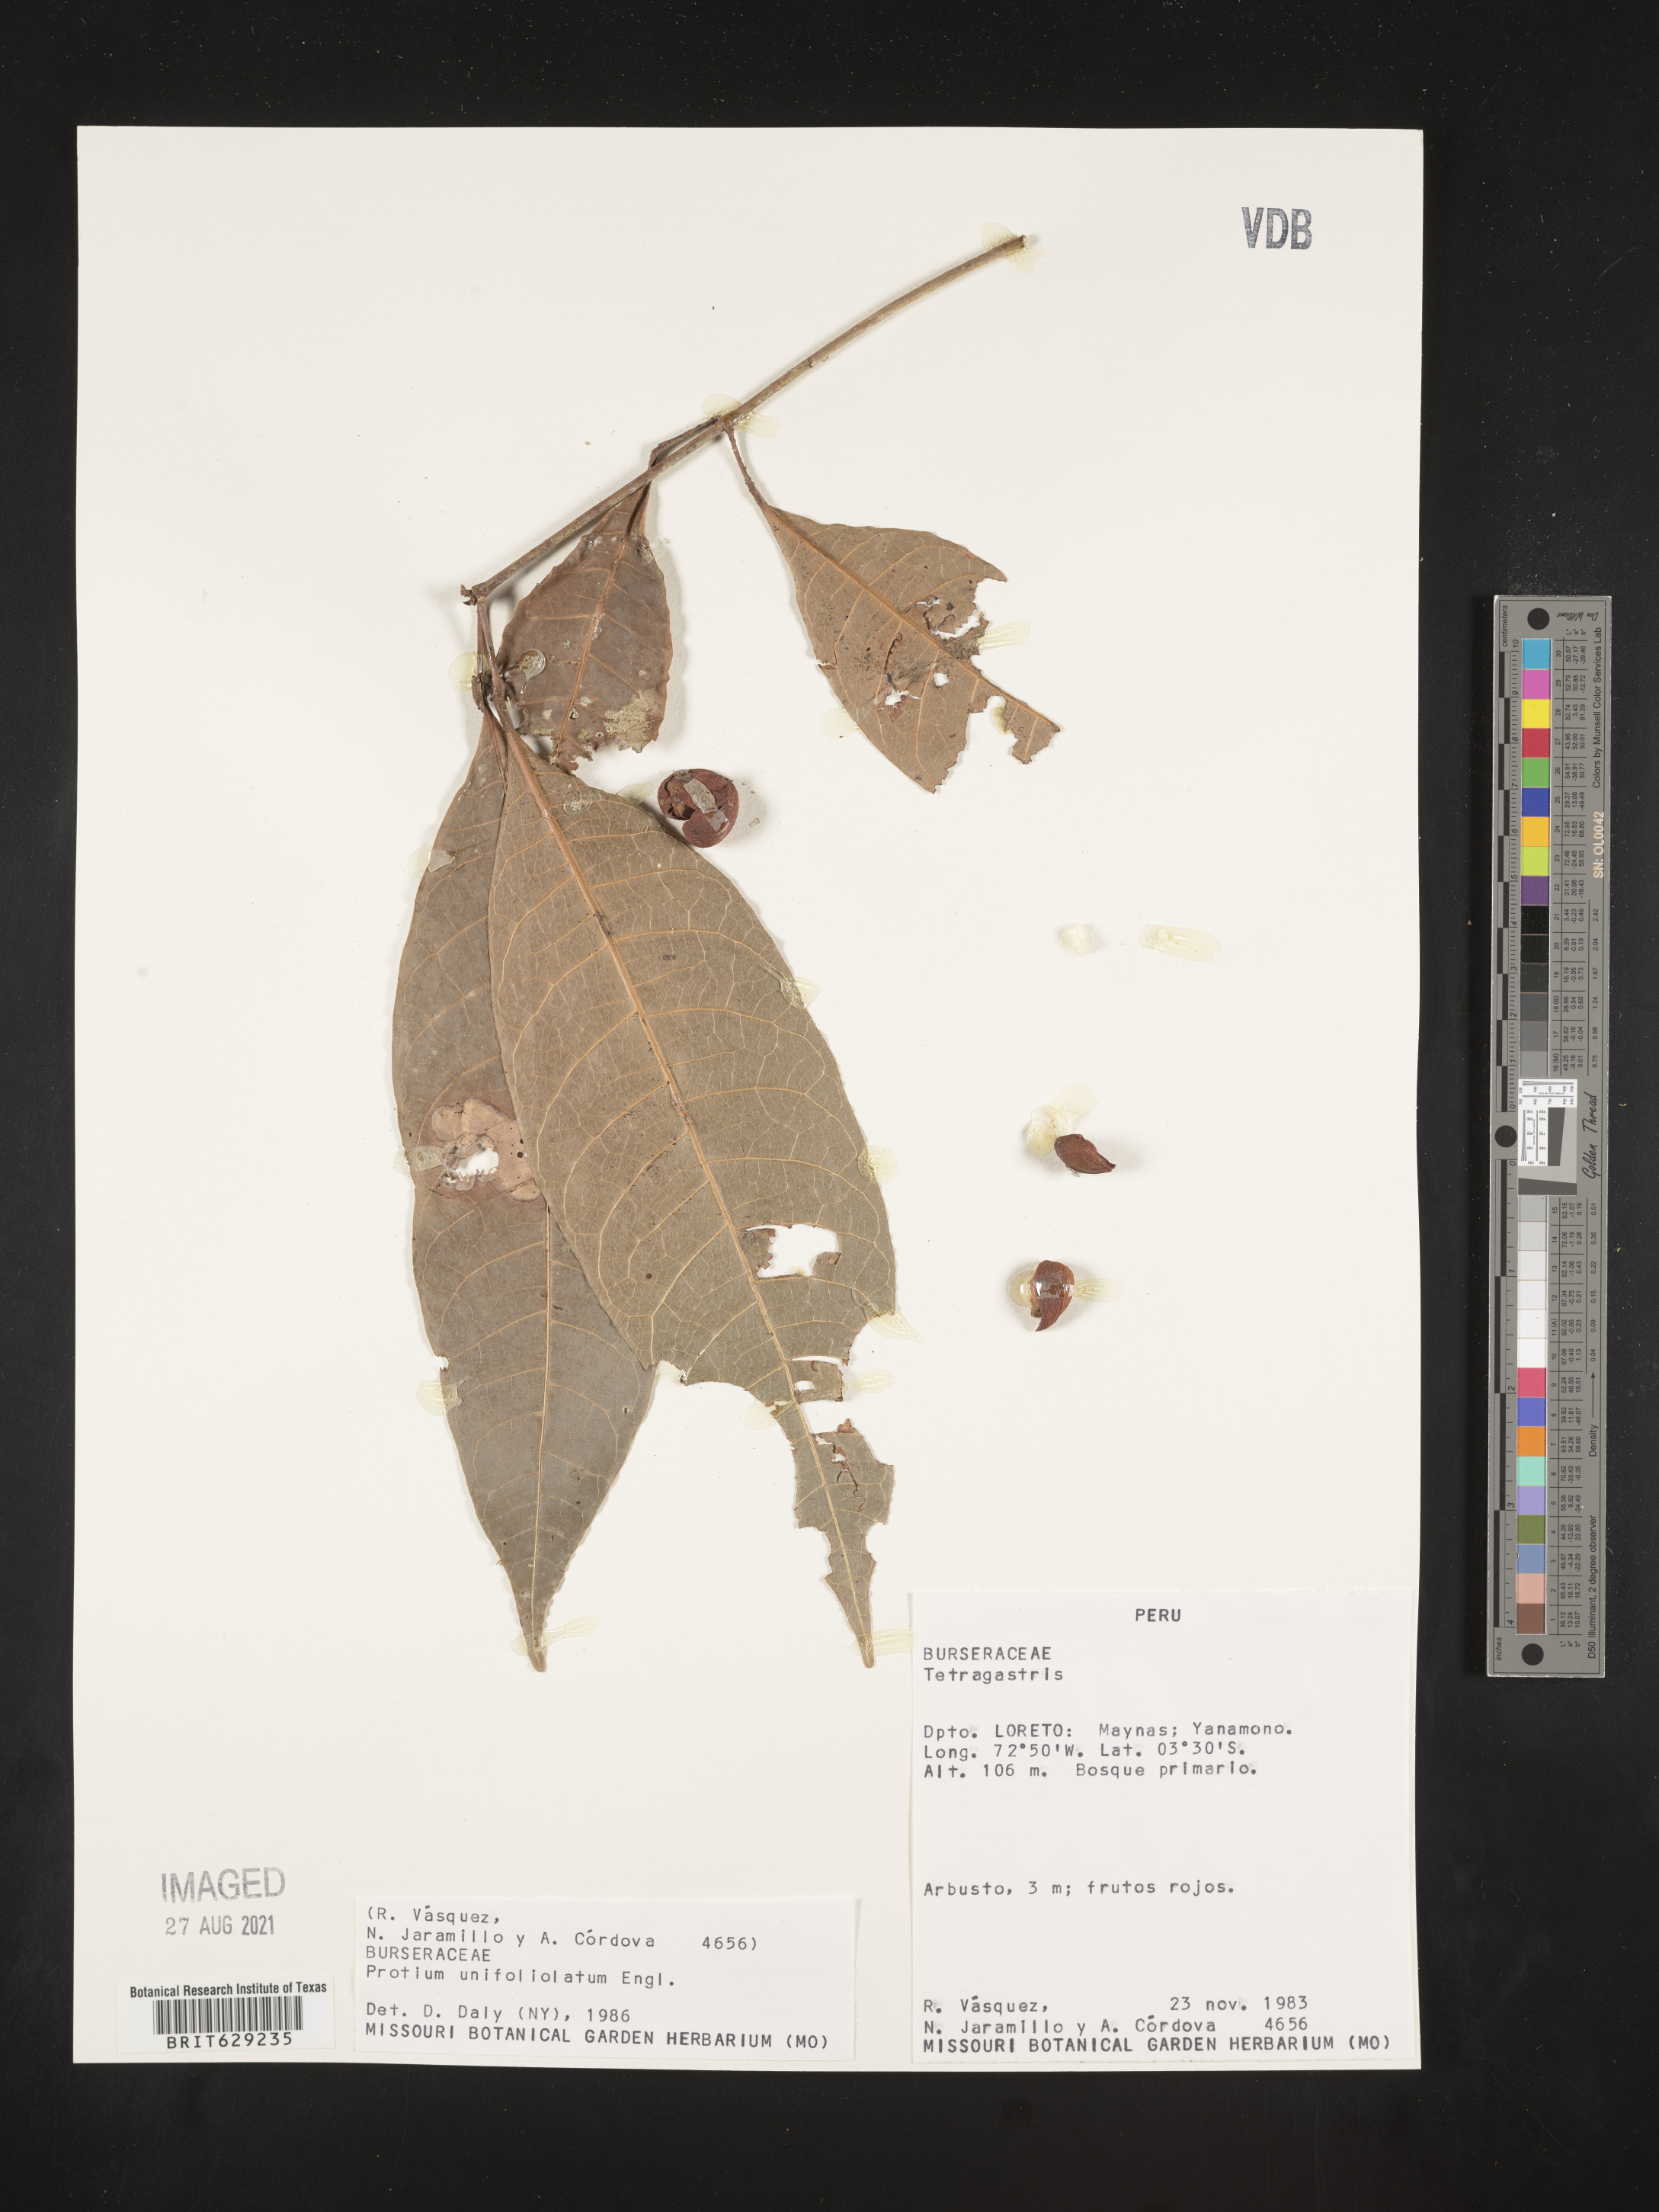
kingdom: Plantae
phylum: Tracheophyta
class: Magnoliopsida
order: Sapindales
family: Burseraceae
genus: Protium
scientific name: Protium unifoliolatum
